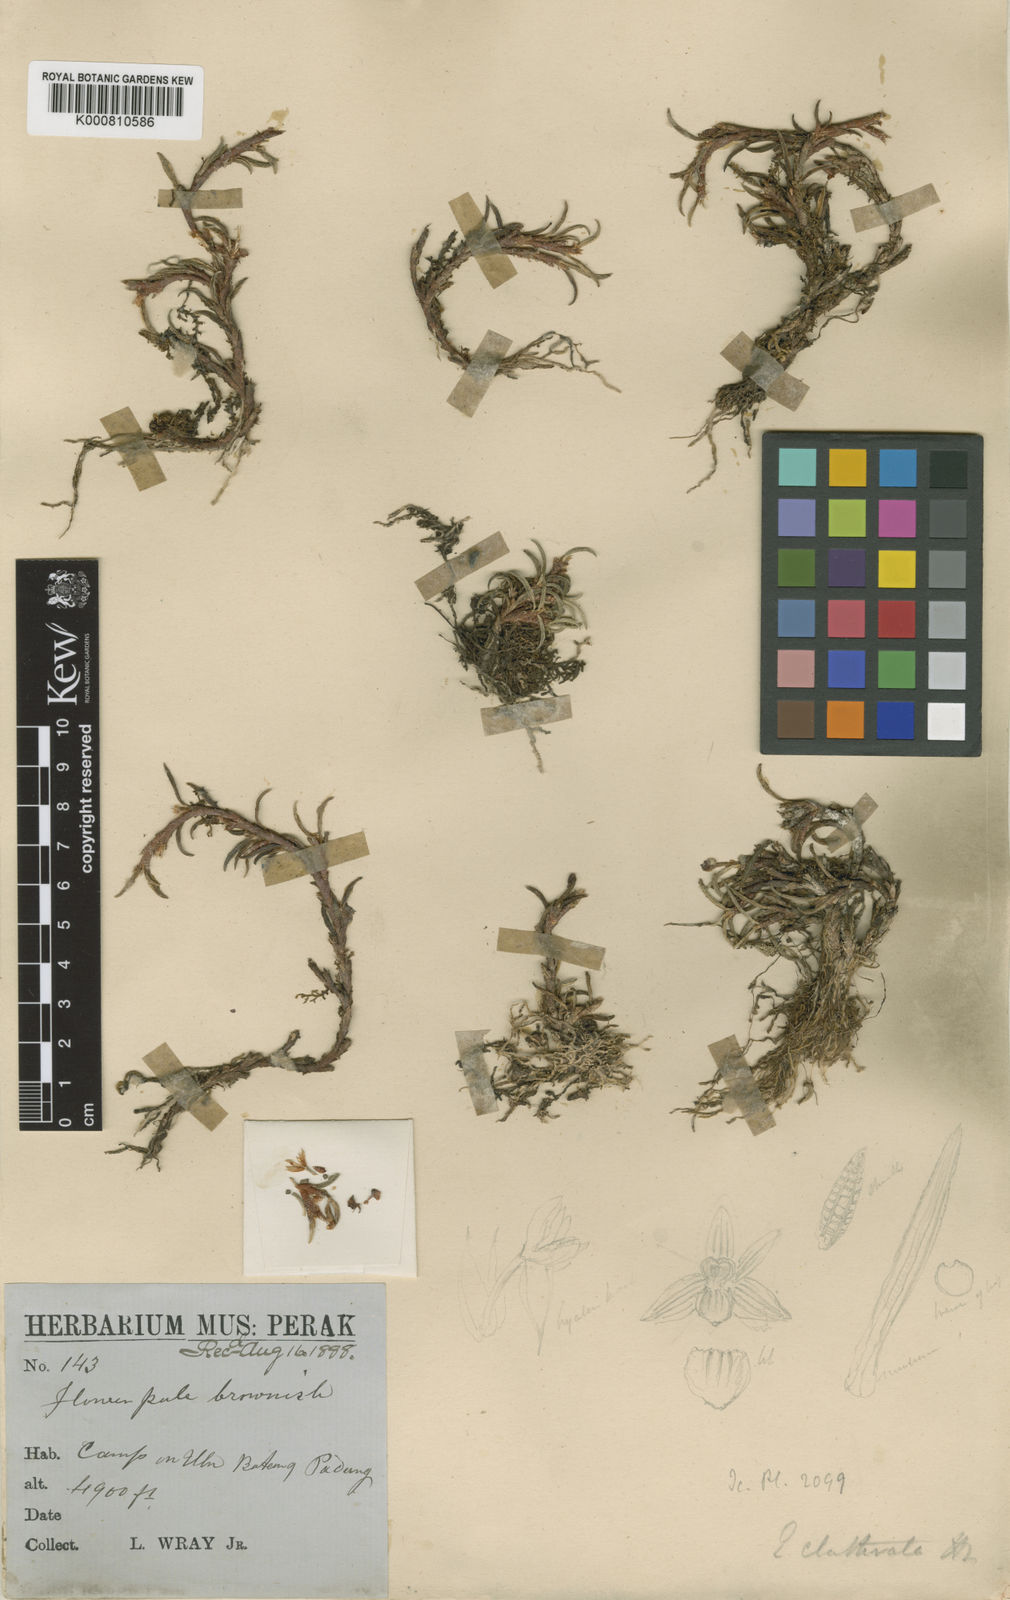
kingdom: Plantae
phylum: Tracheophyta
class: Liliopsida
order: Asparagales
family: Orchidaceae
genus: Ceratostylis
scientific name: Ceratostylis clathrata
